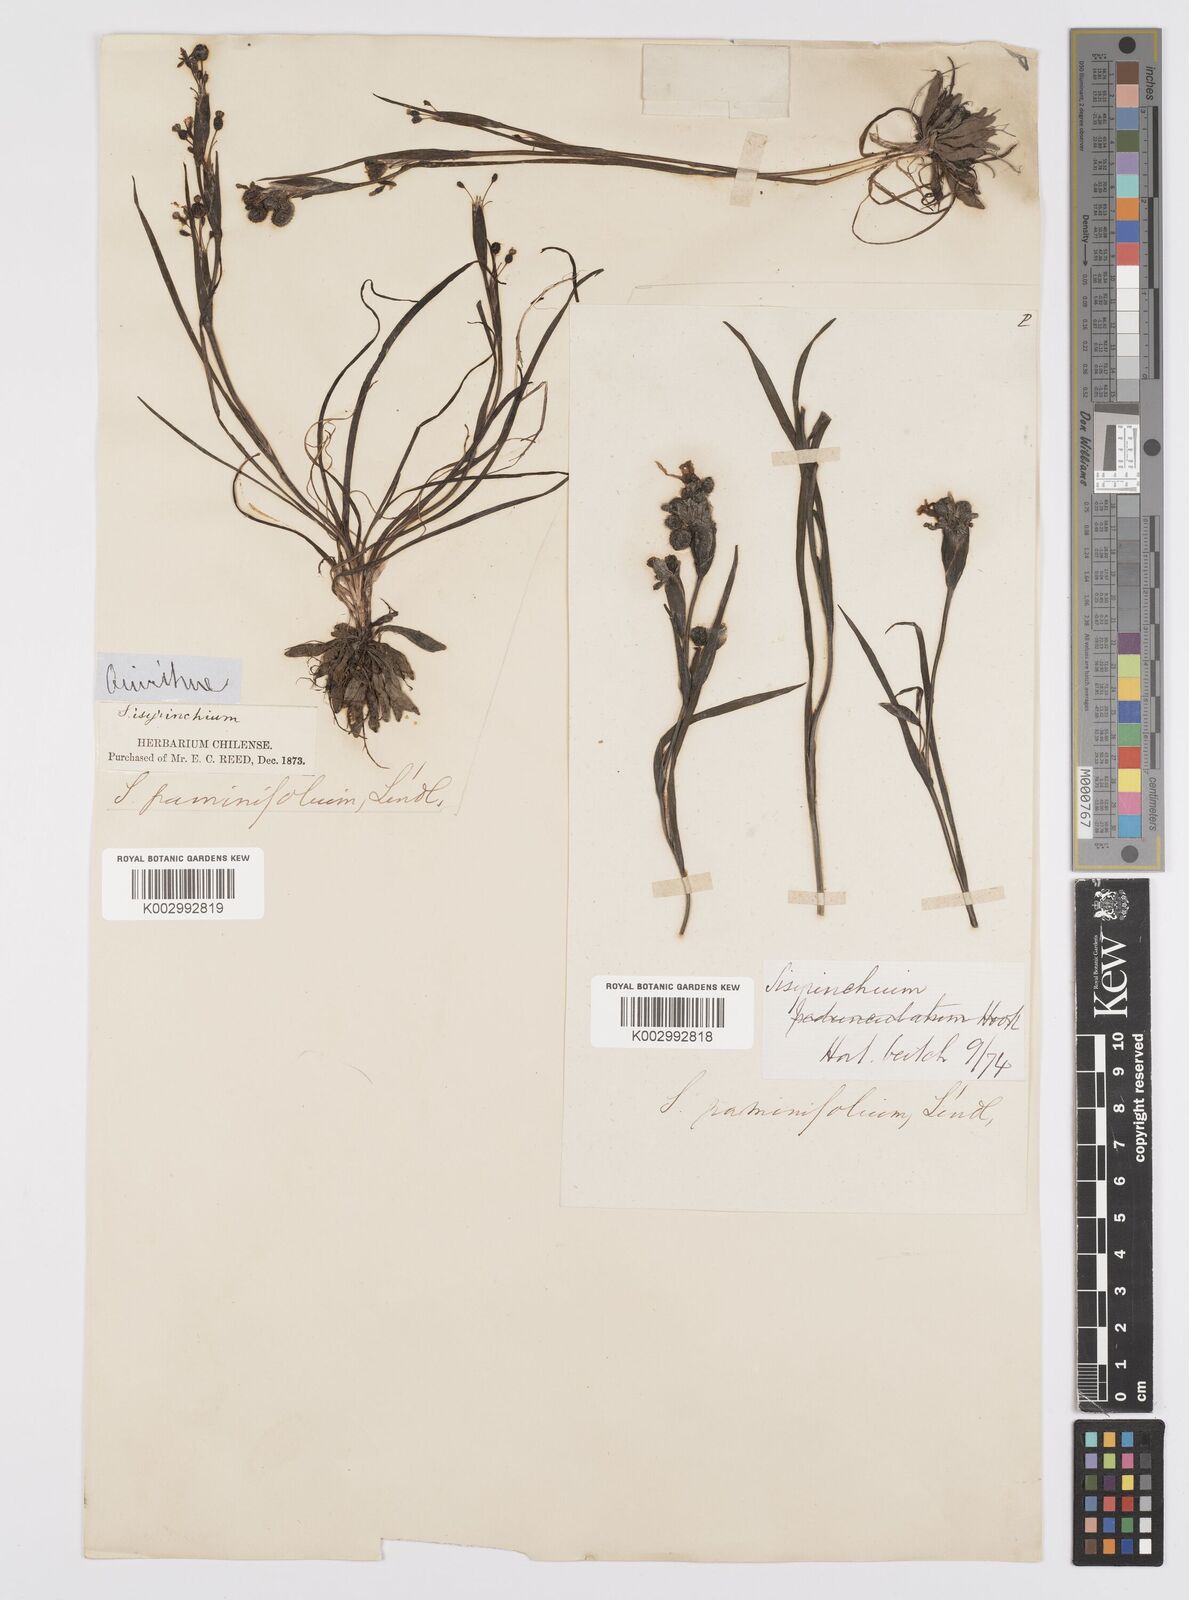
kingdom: Plantae
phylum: Tracheophyta
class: Liliopsida
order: Asparagales
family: Iridaceae
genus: Sisyrinchium
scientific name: Sisyrinchium graminifolium
